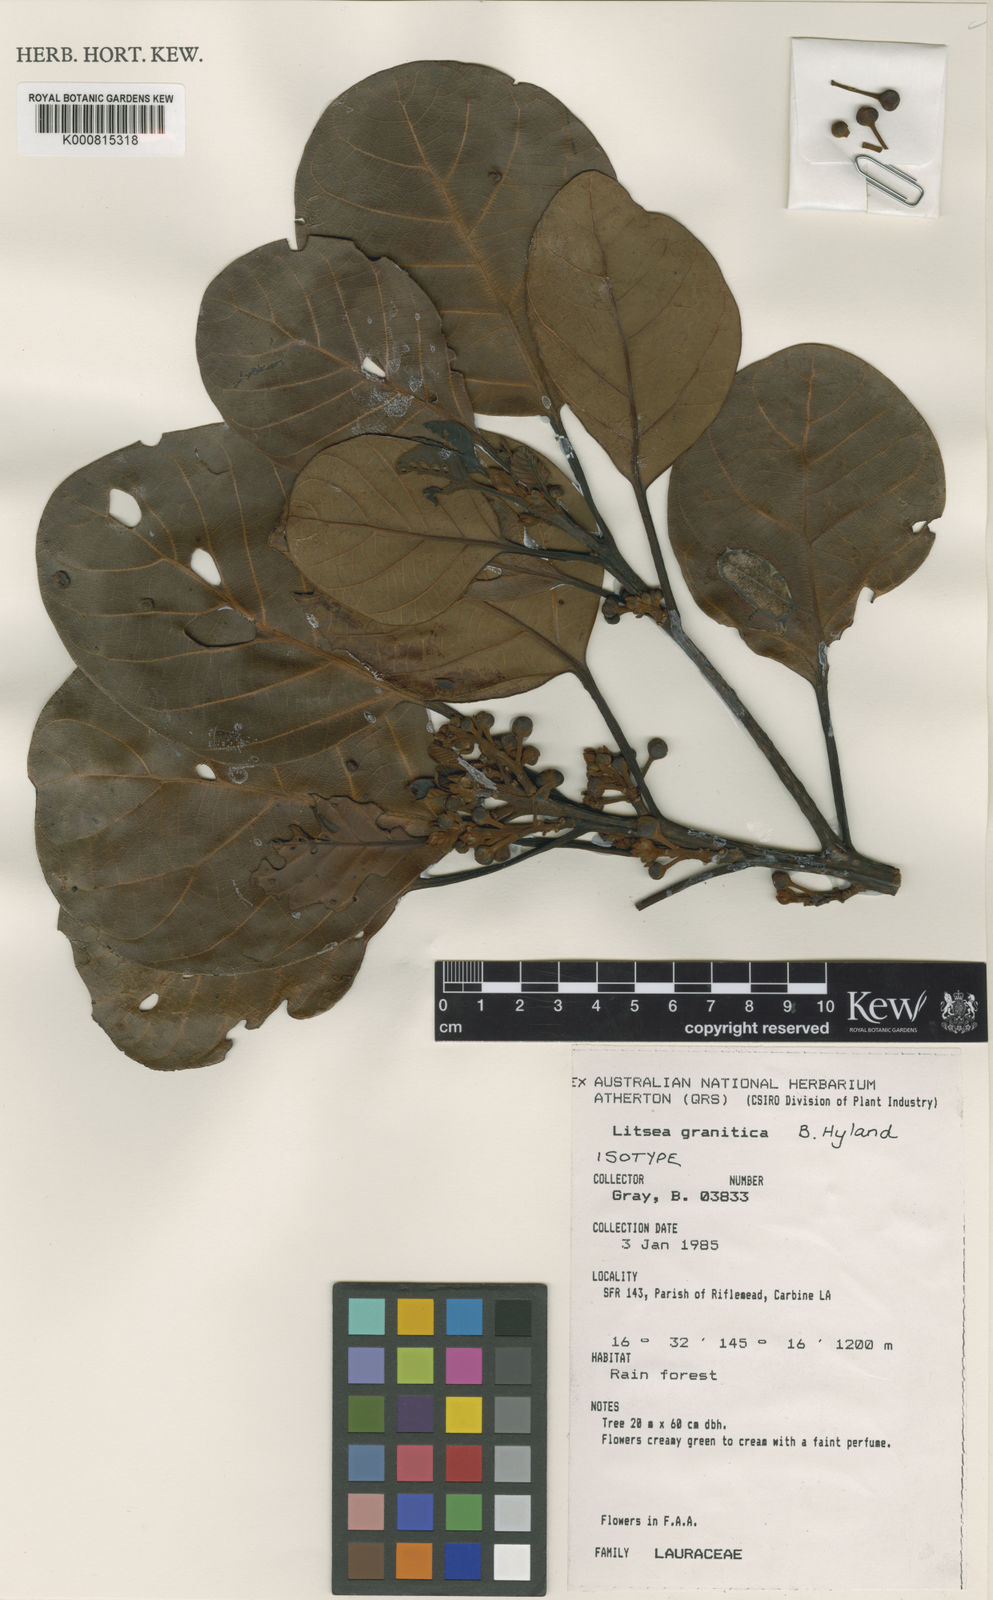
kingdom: Plantae
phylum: Tracheophyta
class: Magnoliopsida
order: Laurales
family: Lauraceae
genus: Litsea
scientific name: Litsea granitica
